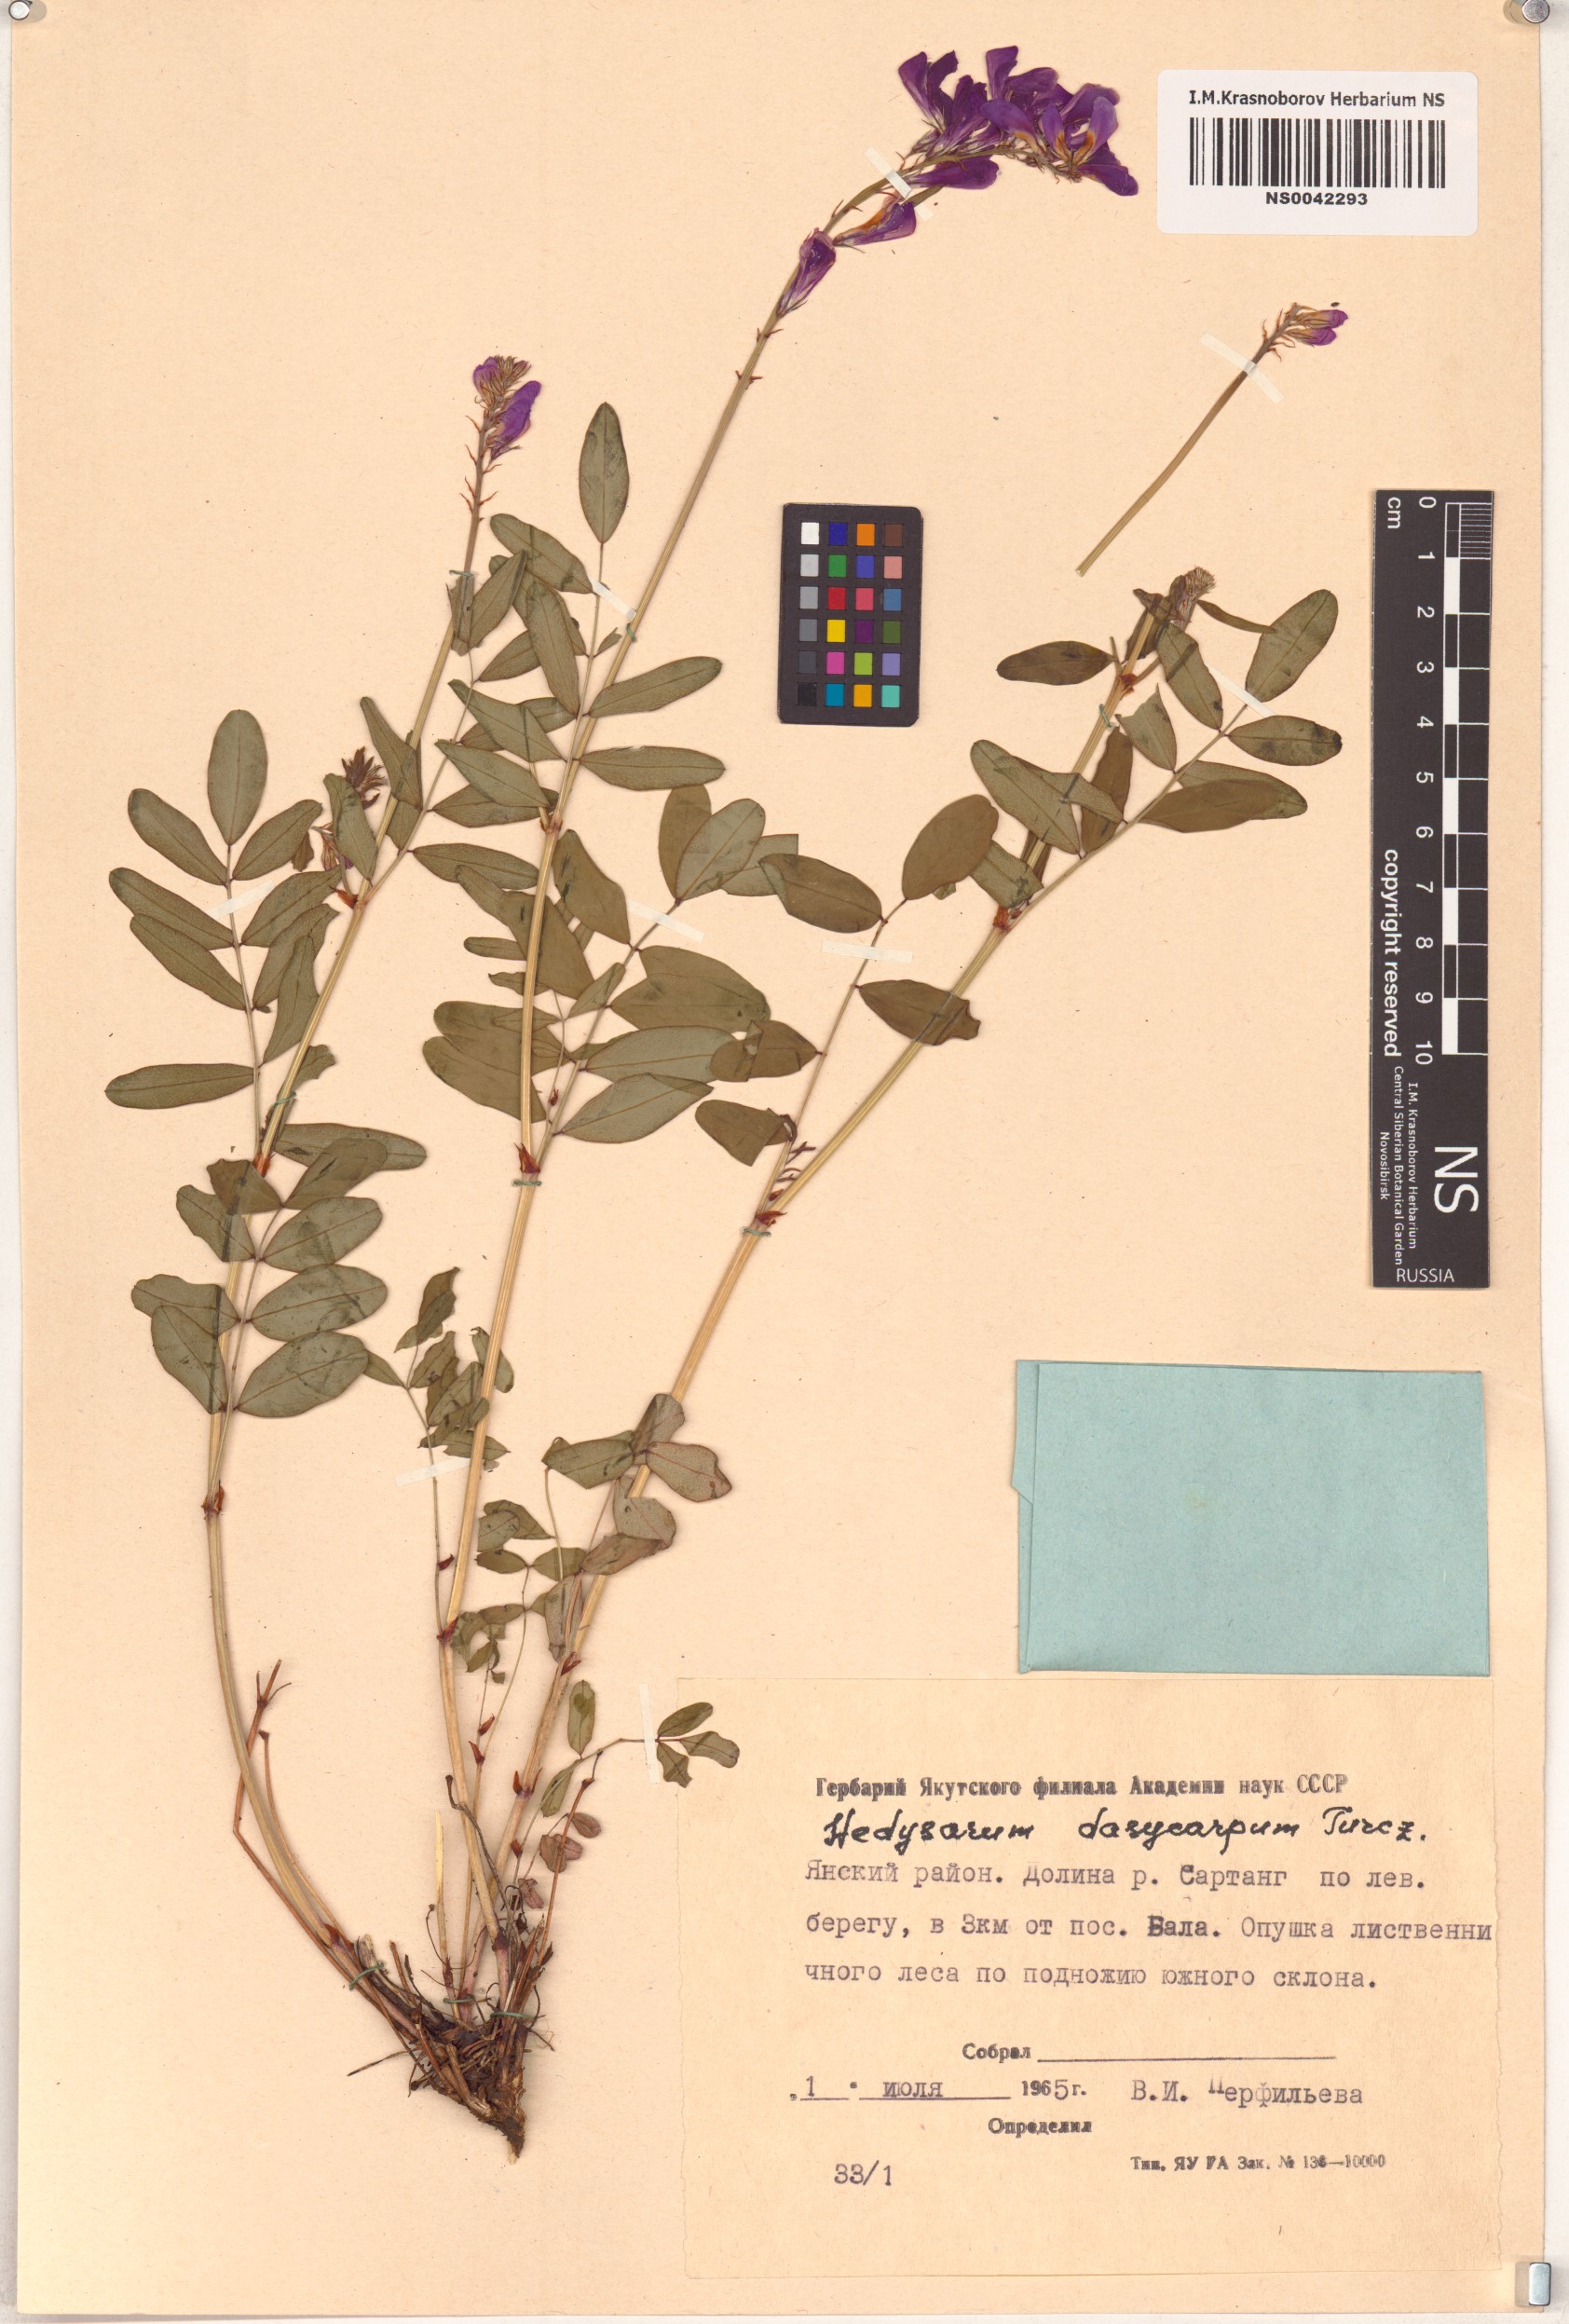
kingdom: Plantae
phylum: Tracheophyta
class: Magnoliopsida
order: Fabales
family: Fabaceae
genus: Hedysarum
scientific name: Hedysarum dasycarpum
